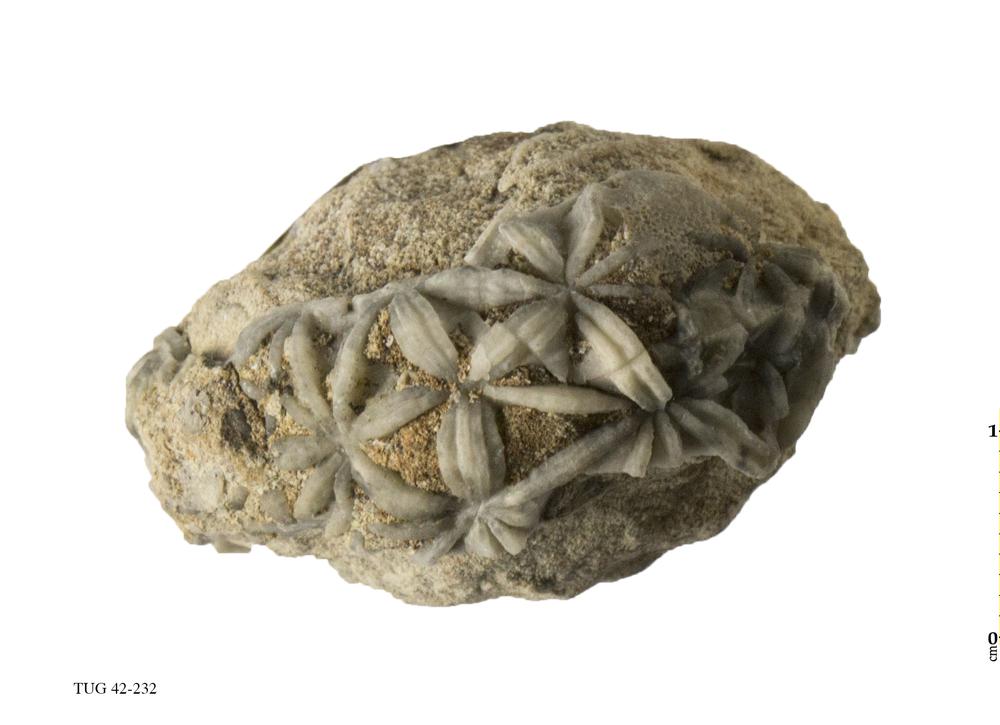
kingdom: Animalia
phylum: Echinodermata
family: Caryocystitidae
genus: Heliocrinites
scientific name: Heliocrinites
